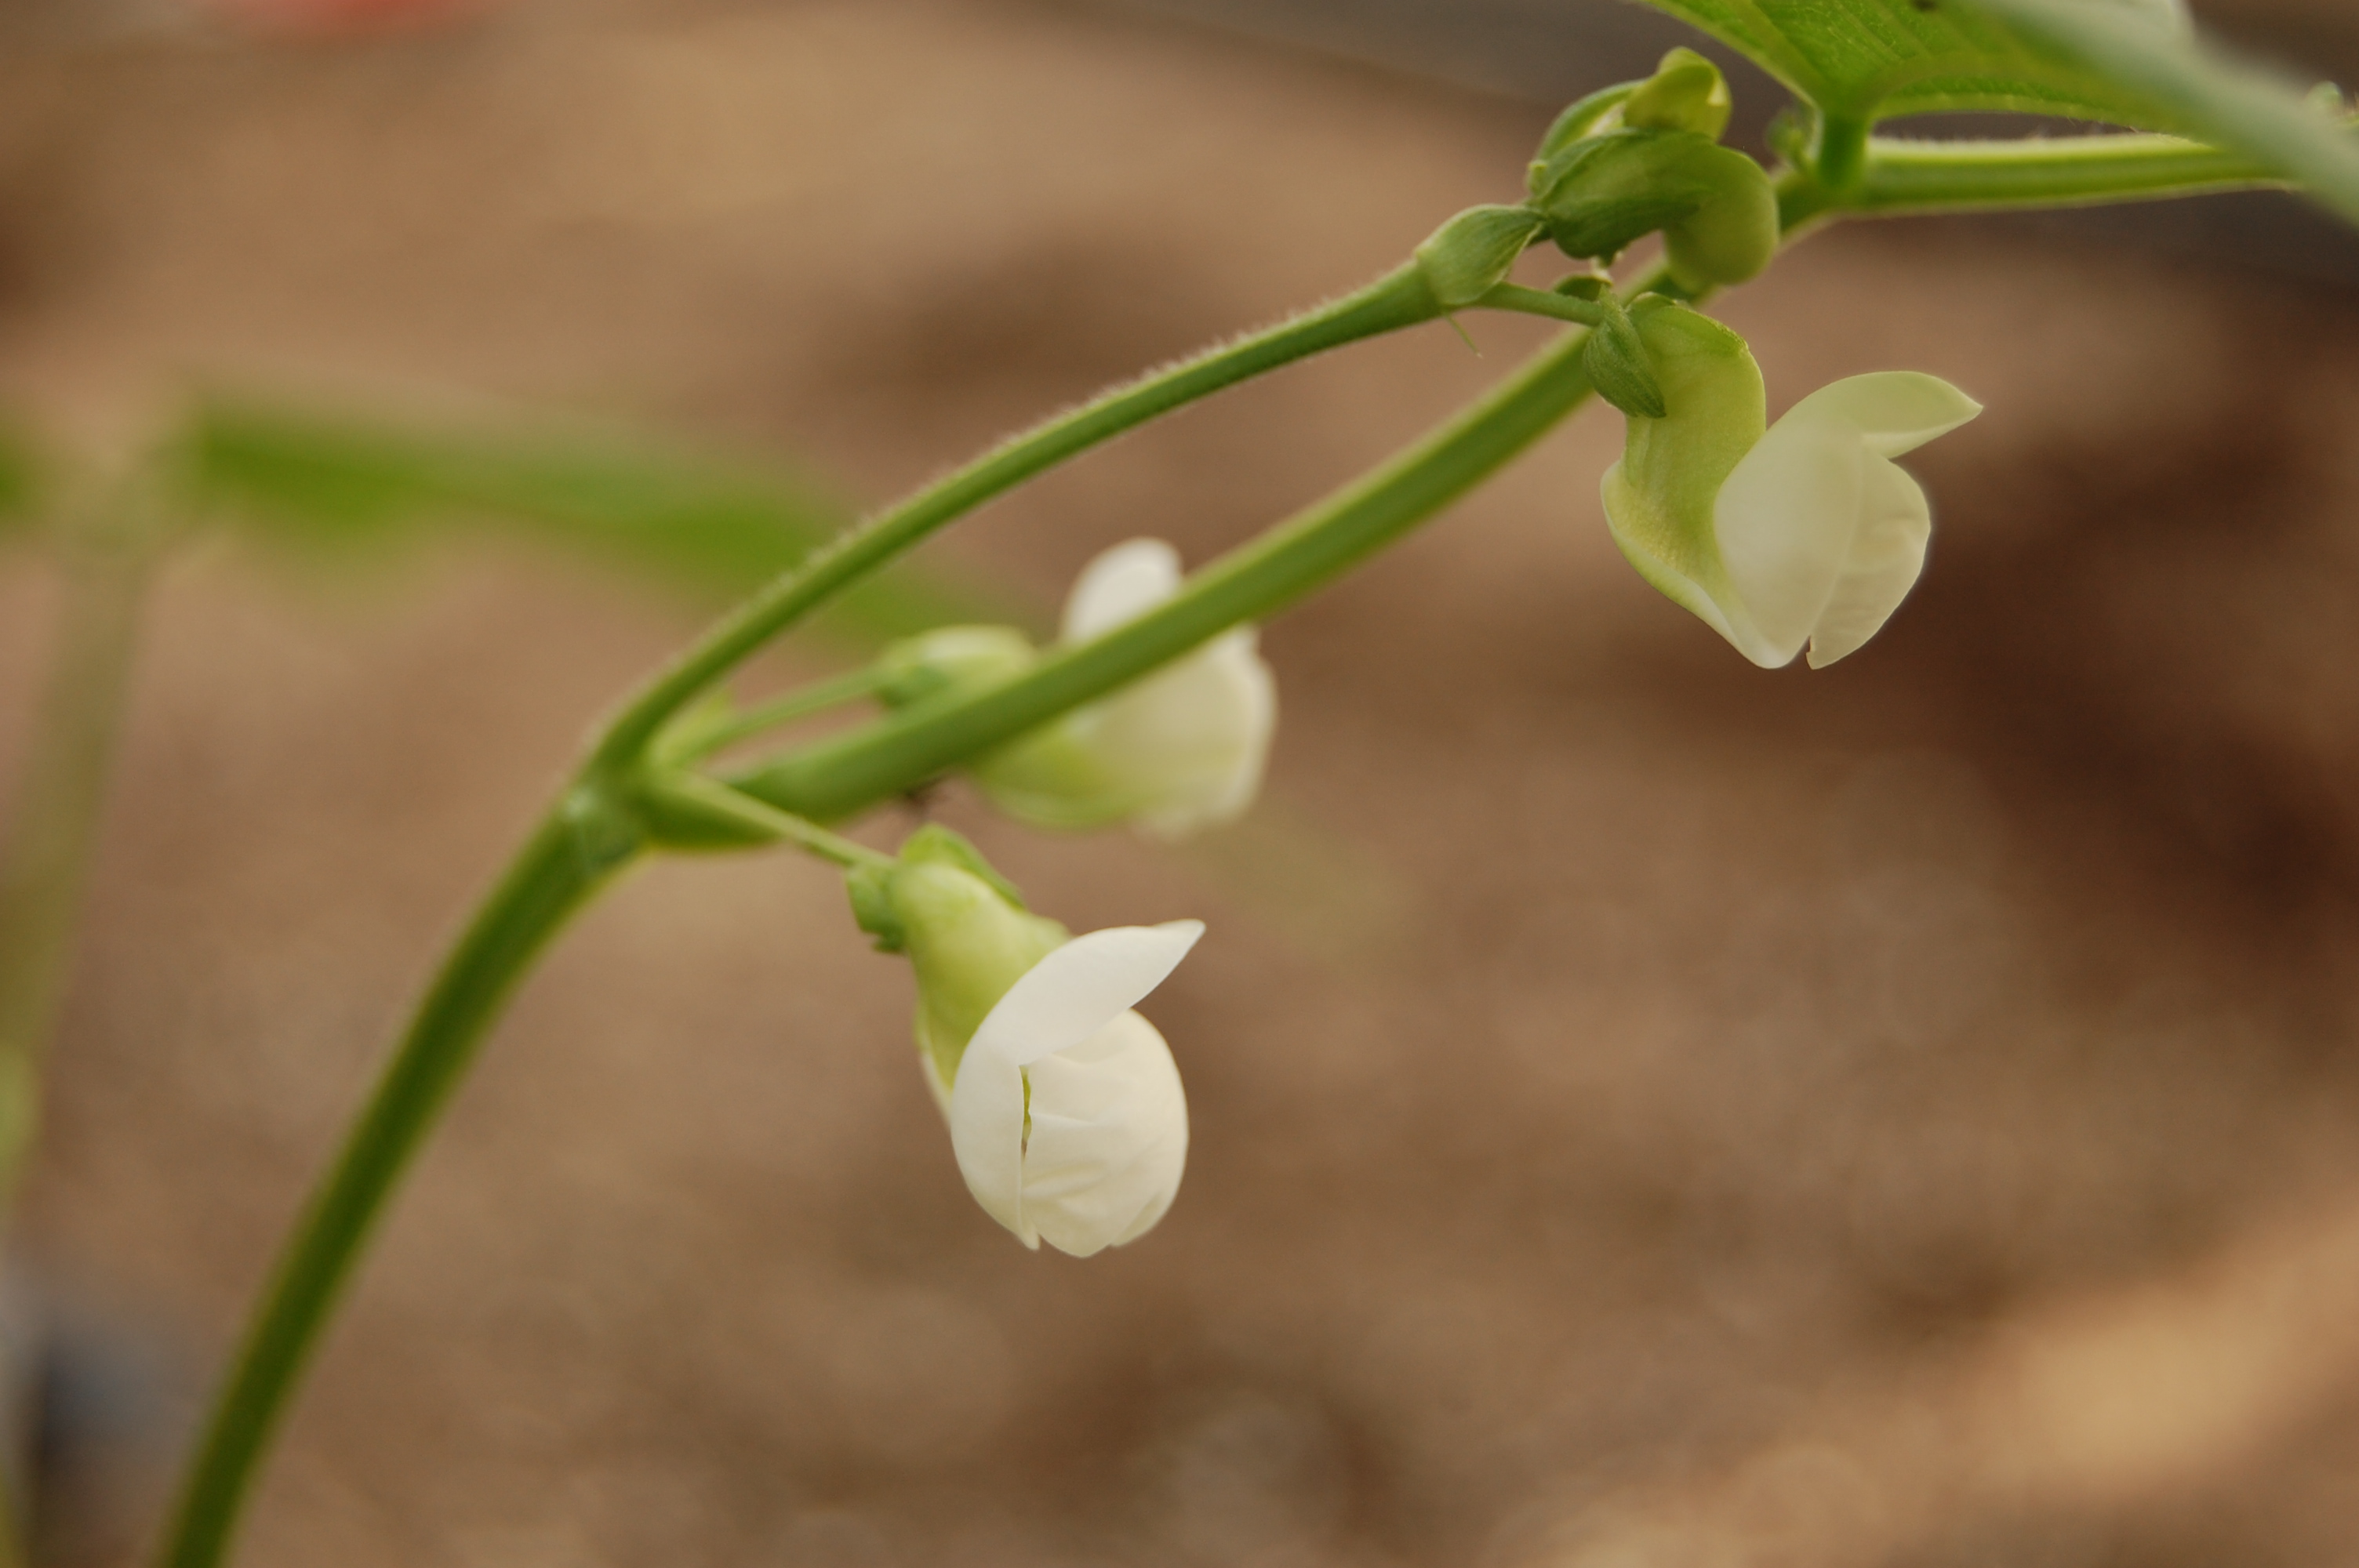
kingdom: Plantae
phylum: Tracheophyta
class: Magnoliopsida
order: Fabales
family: Fabaceae
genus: Phaseolus
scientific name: Phaseolus vulgaris
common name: Bean
